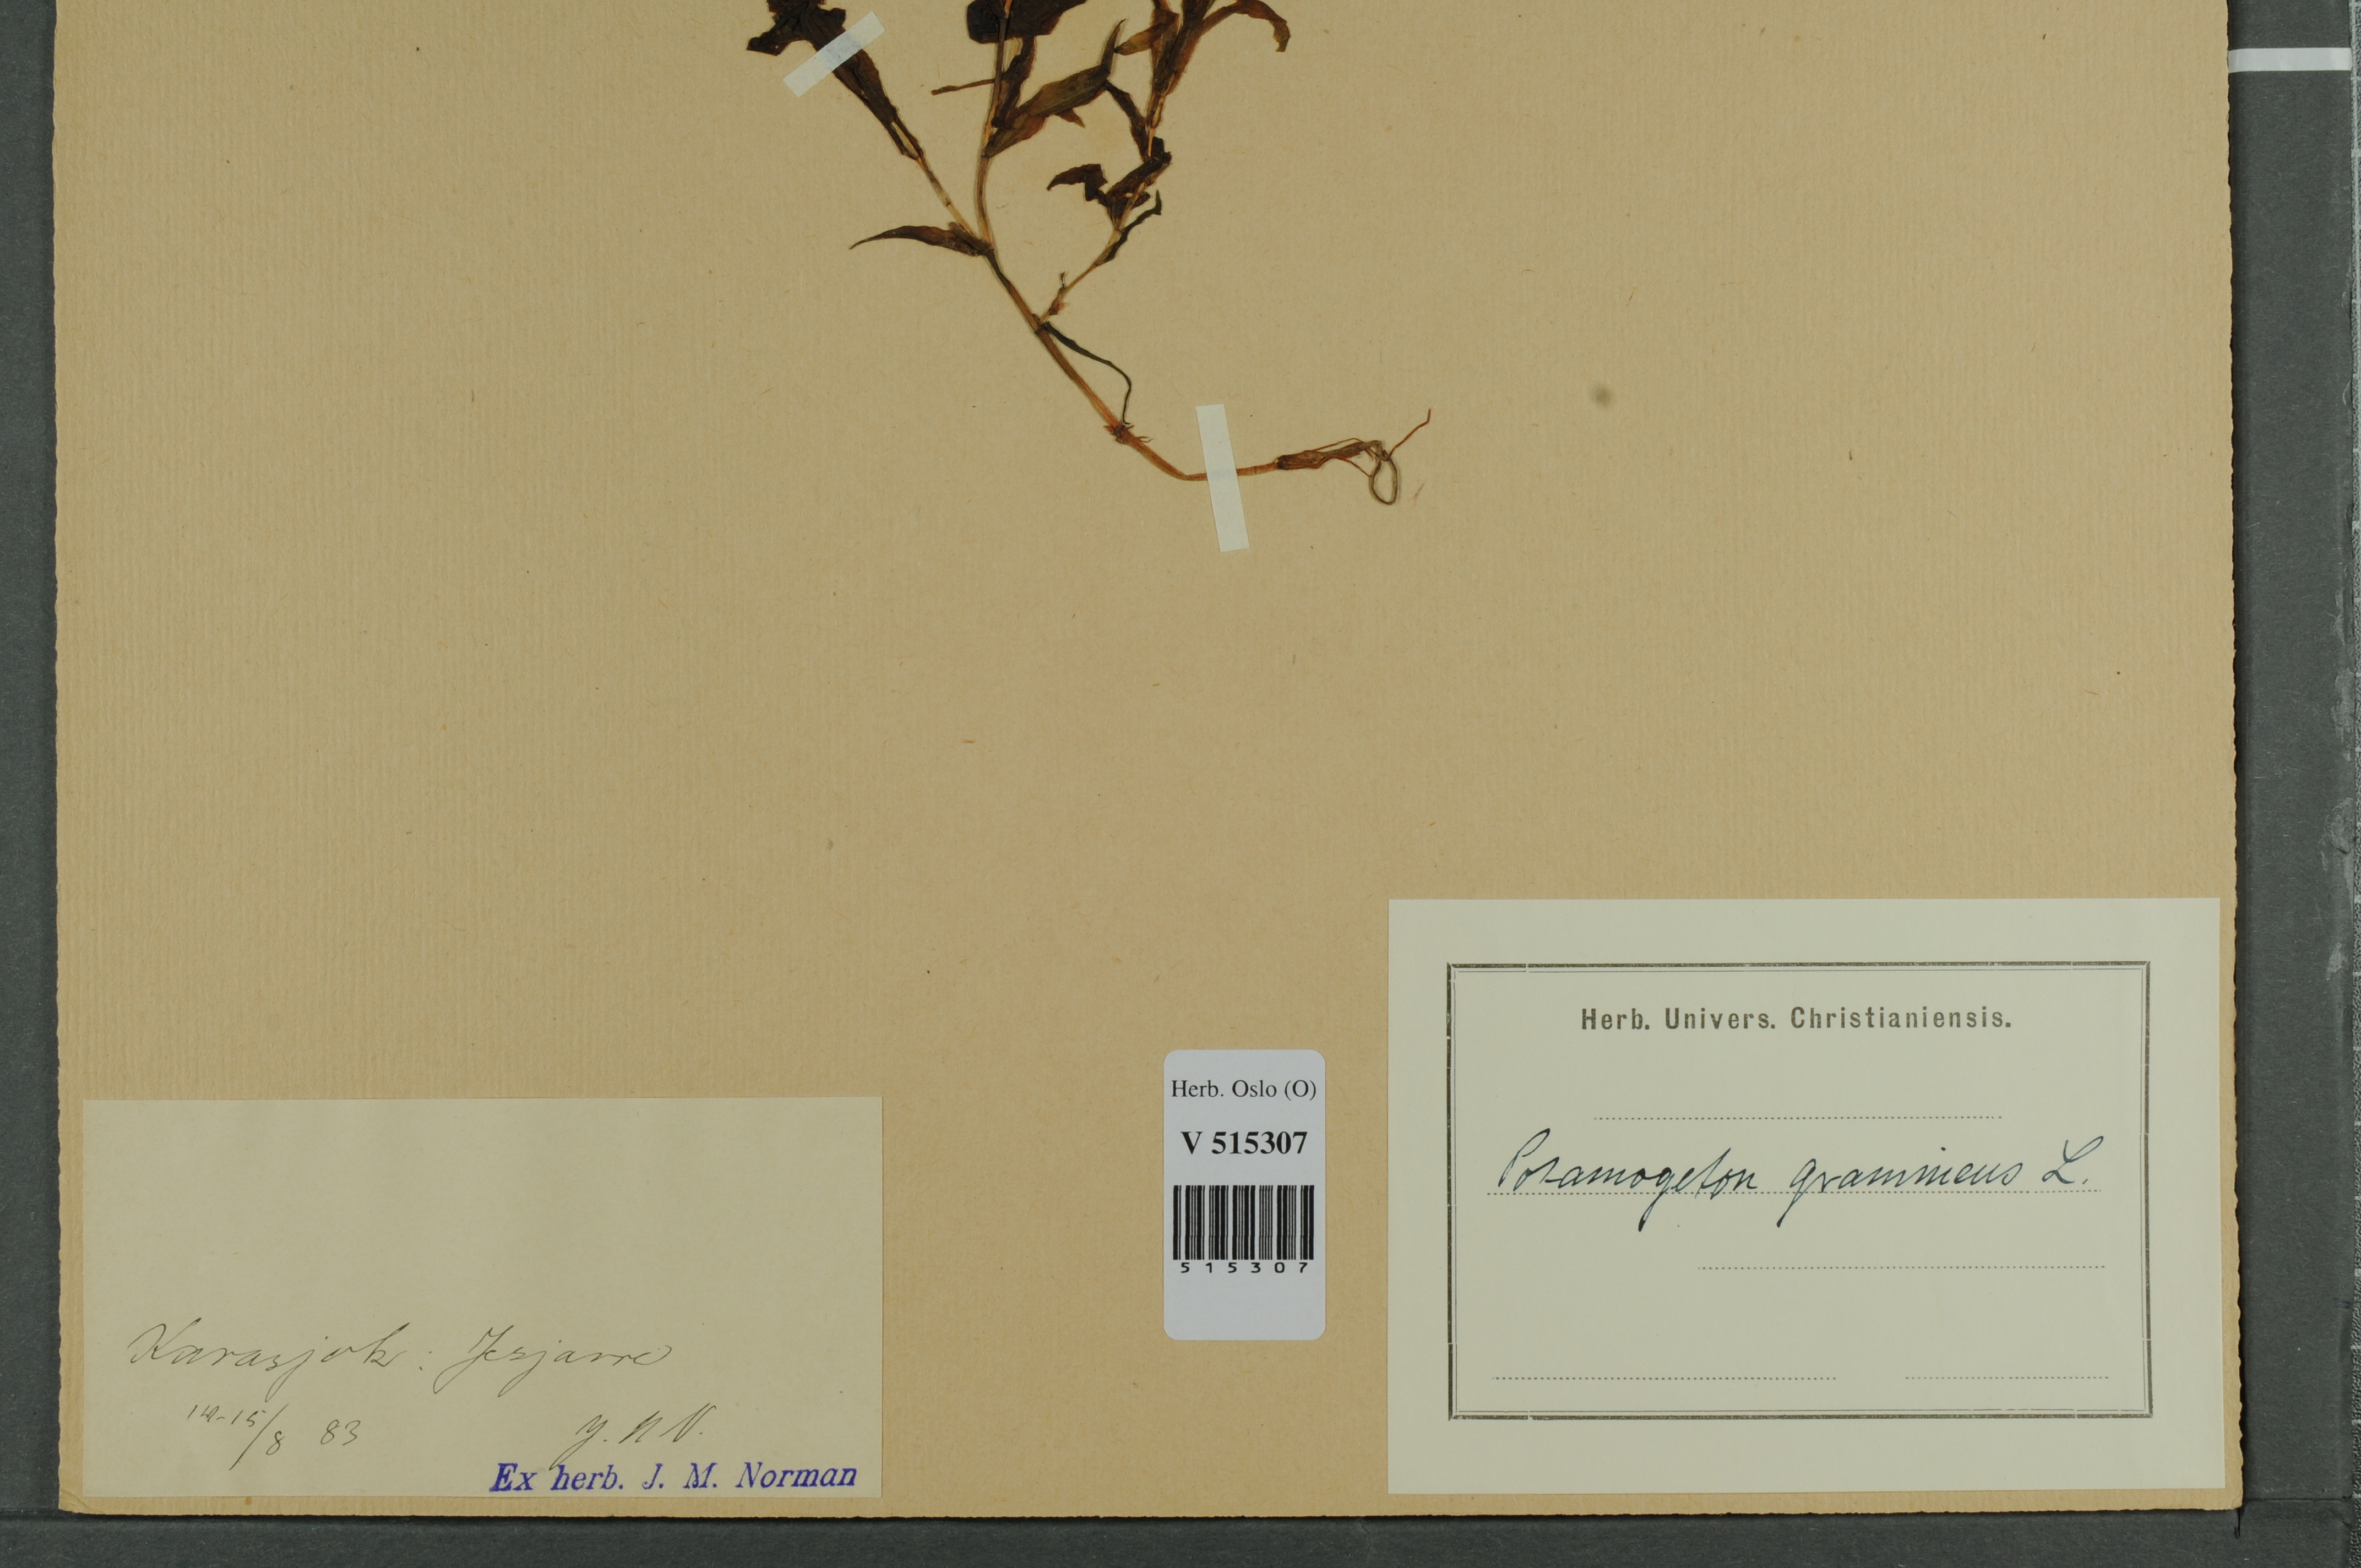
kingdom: Plantae
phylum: Tracheophyta
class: Liliopsida
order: Alismatales
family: Potamogetonaceae
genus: Potamogeton
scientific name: Potamogeton gramineus
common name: Various-leaved pondweed
